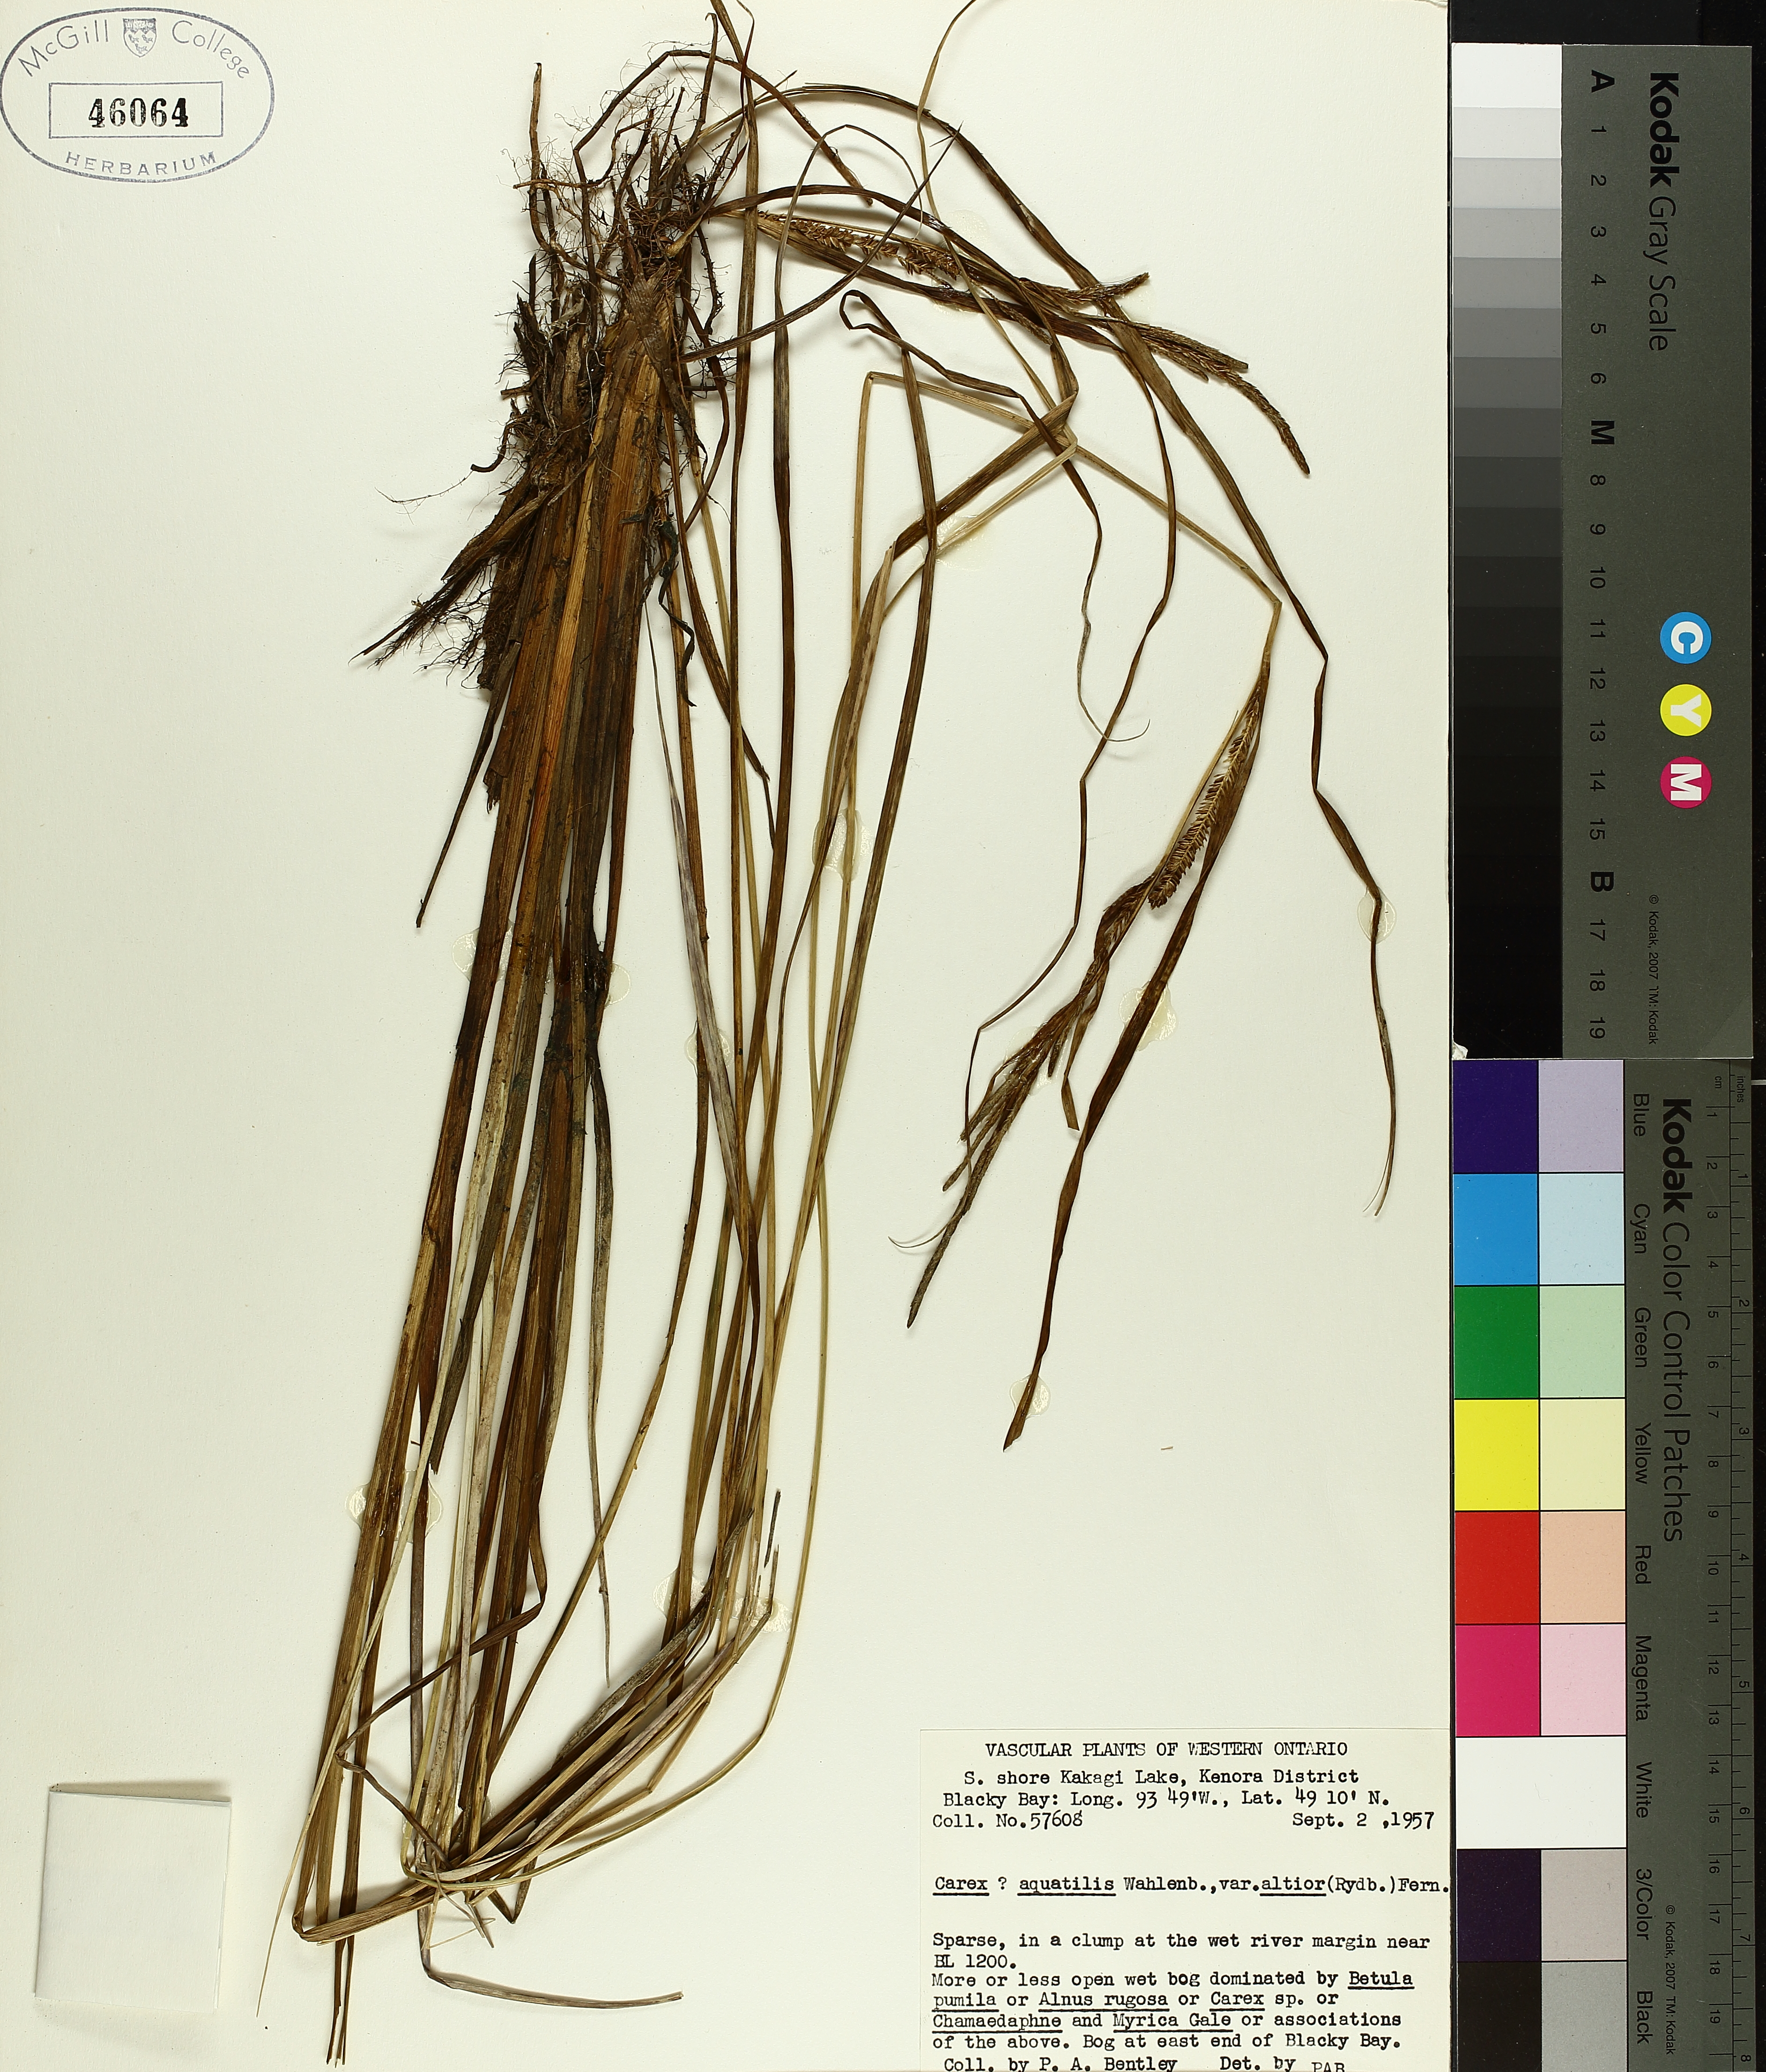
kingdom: Plantae
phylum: Tracheophyta
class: Liliopsida
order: Poales
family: Cyperaceae
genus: Carex
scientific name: Carex emoryi
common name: Emory's sedge
